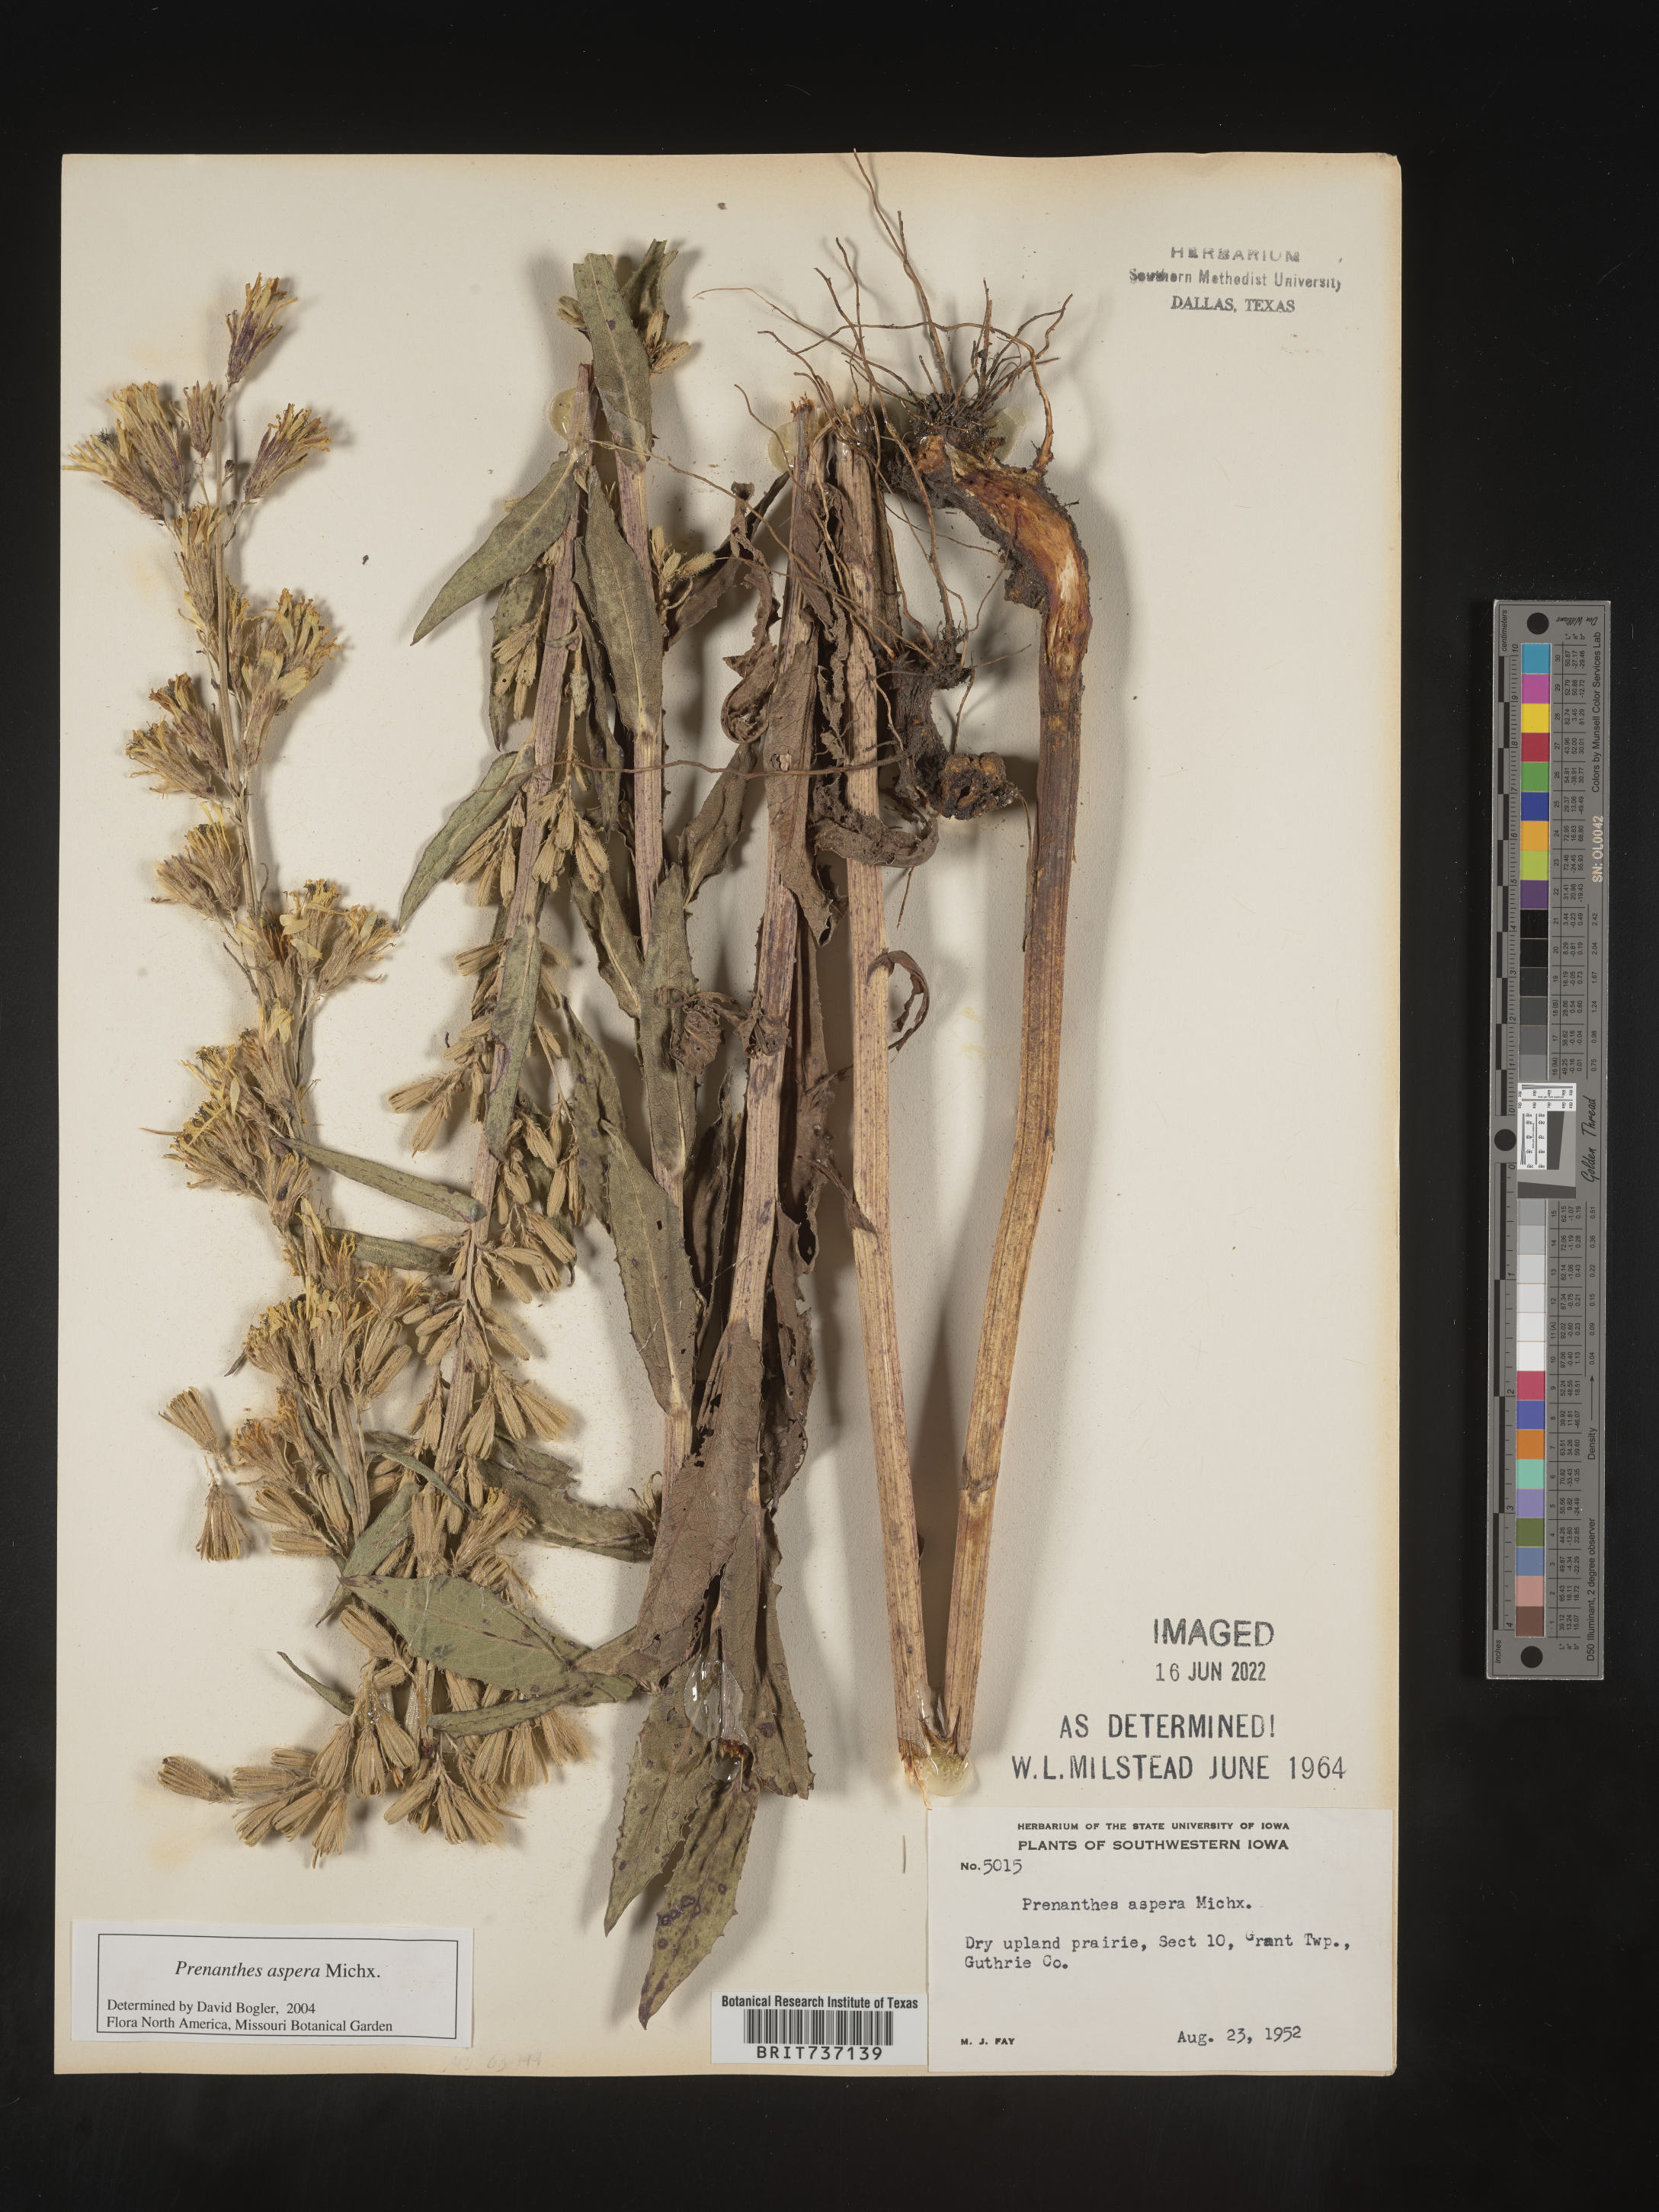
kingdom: Plantae
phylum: Tracheophyta
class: Magnoliopsida
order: Asterales
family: Asteraceae
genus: Nabalus
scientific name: Nabalus asper
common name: Rough rattlesnakeroot
